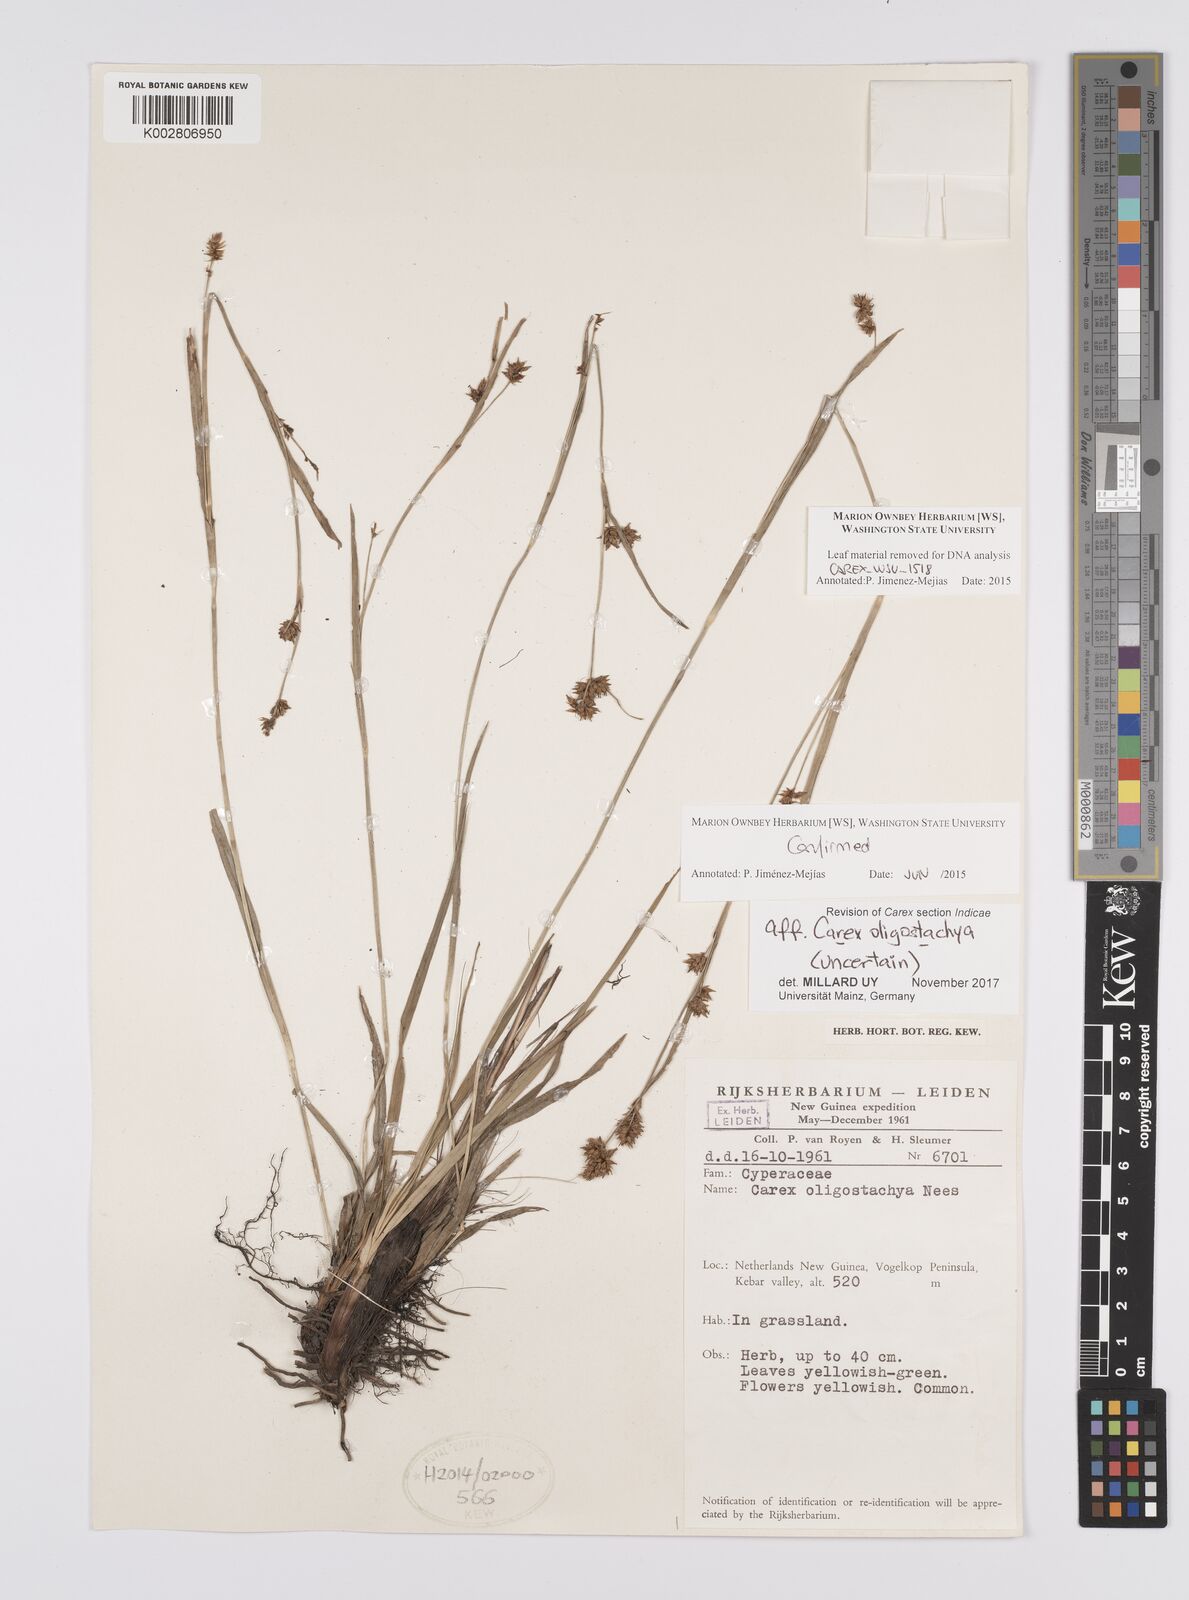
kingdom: Plantae
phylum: Tracheophyta
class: Liliopsida
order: Poales
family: Cyperaceae
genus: Carex
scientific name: Carex oligostachya
